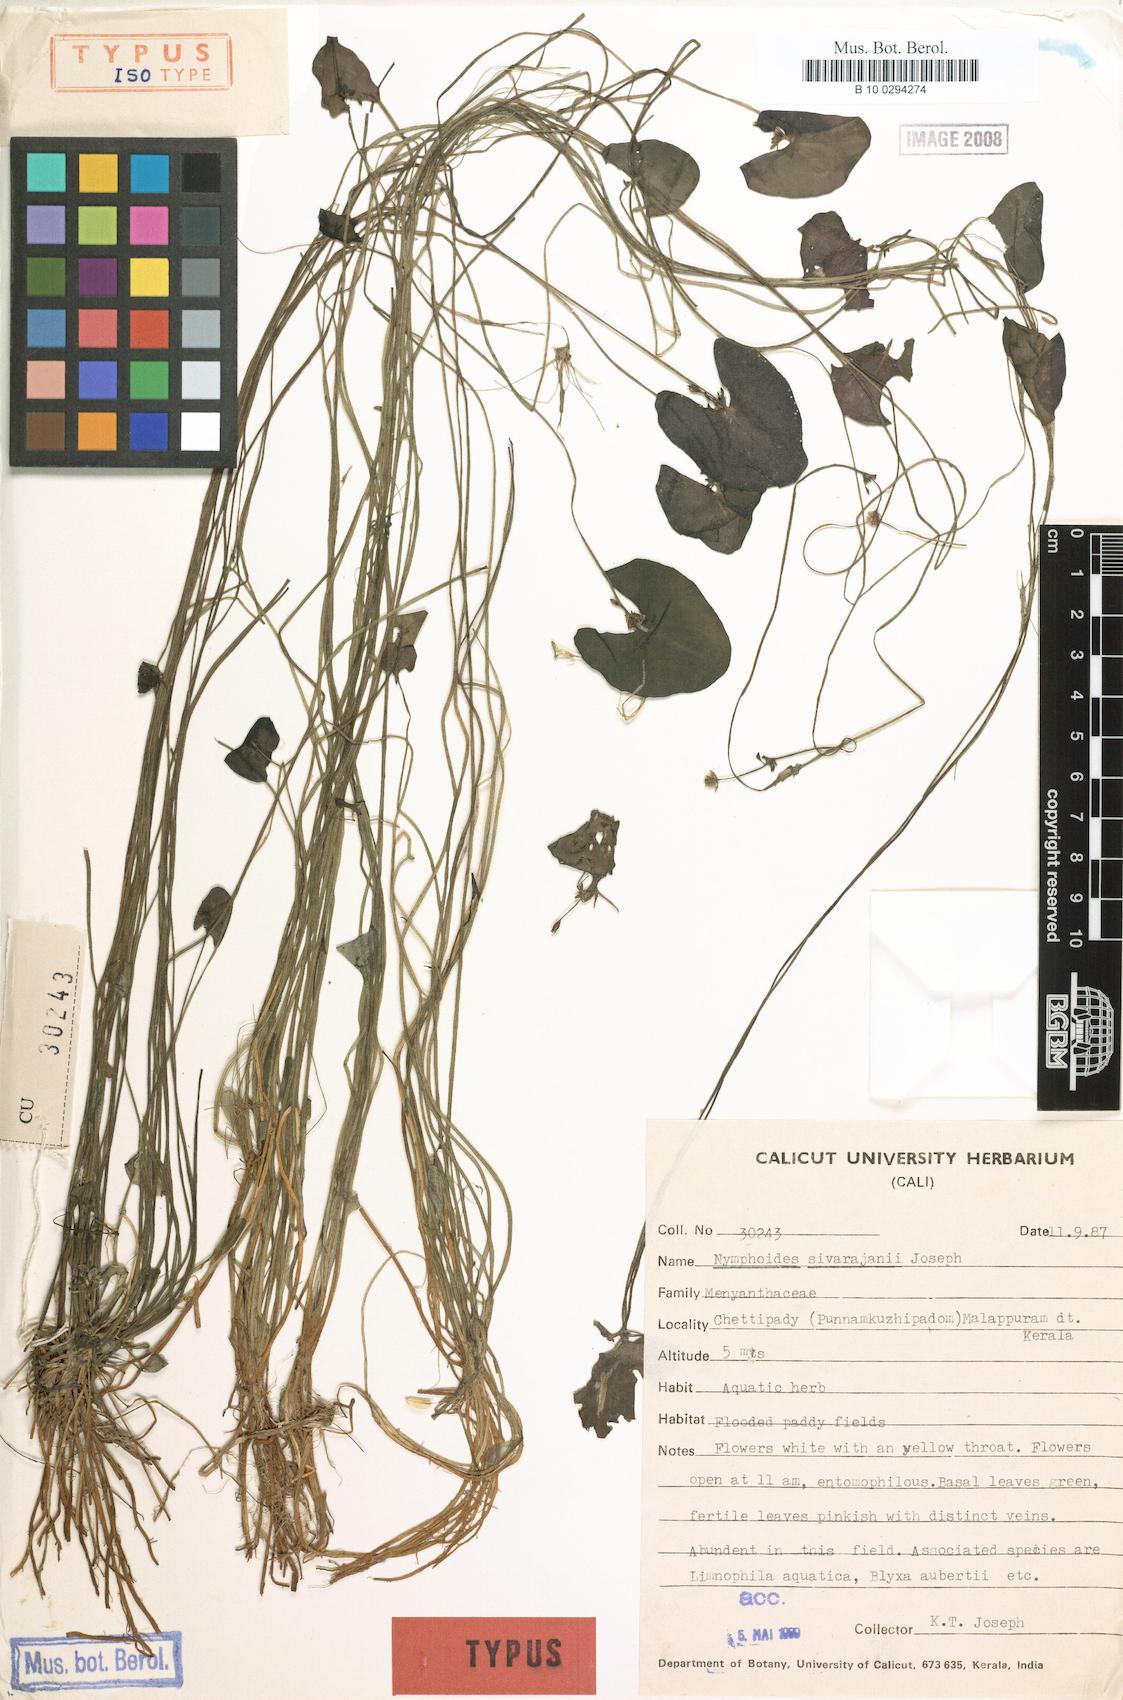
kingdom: Plantae
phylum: Tracheophyta
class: Magnoliopsida
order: Asterales
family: Menyanthaceae
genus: Nymphoides
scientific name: Nymphoides sivarajanii
